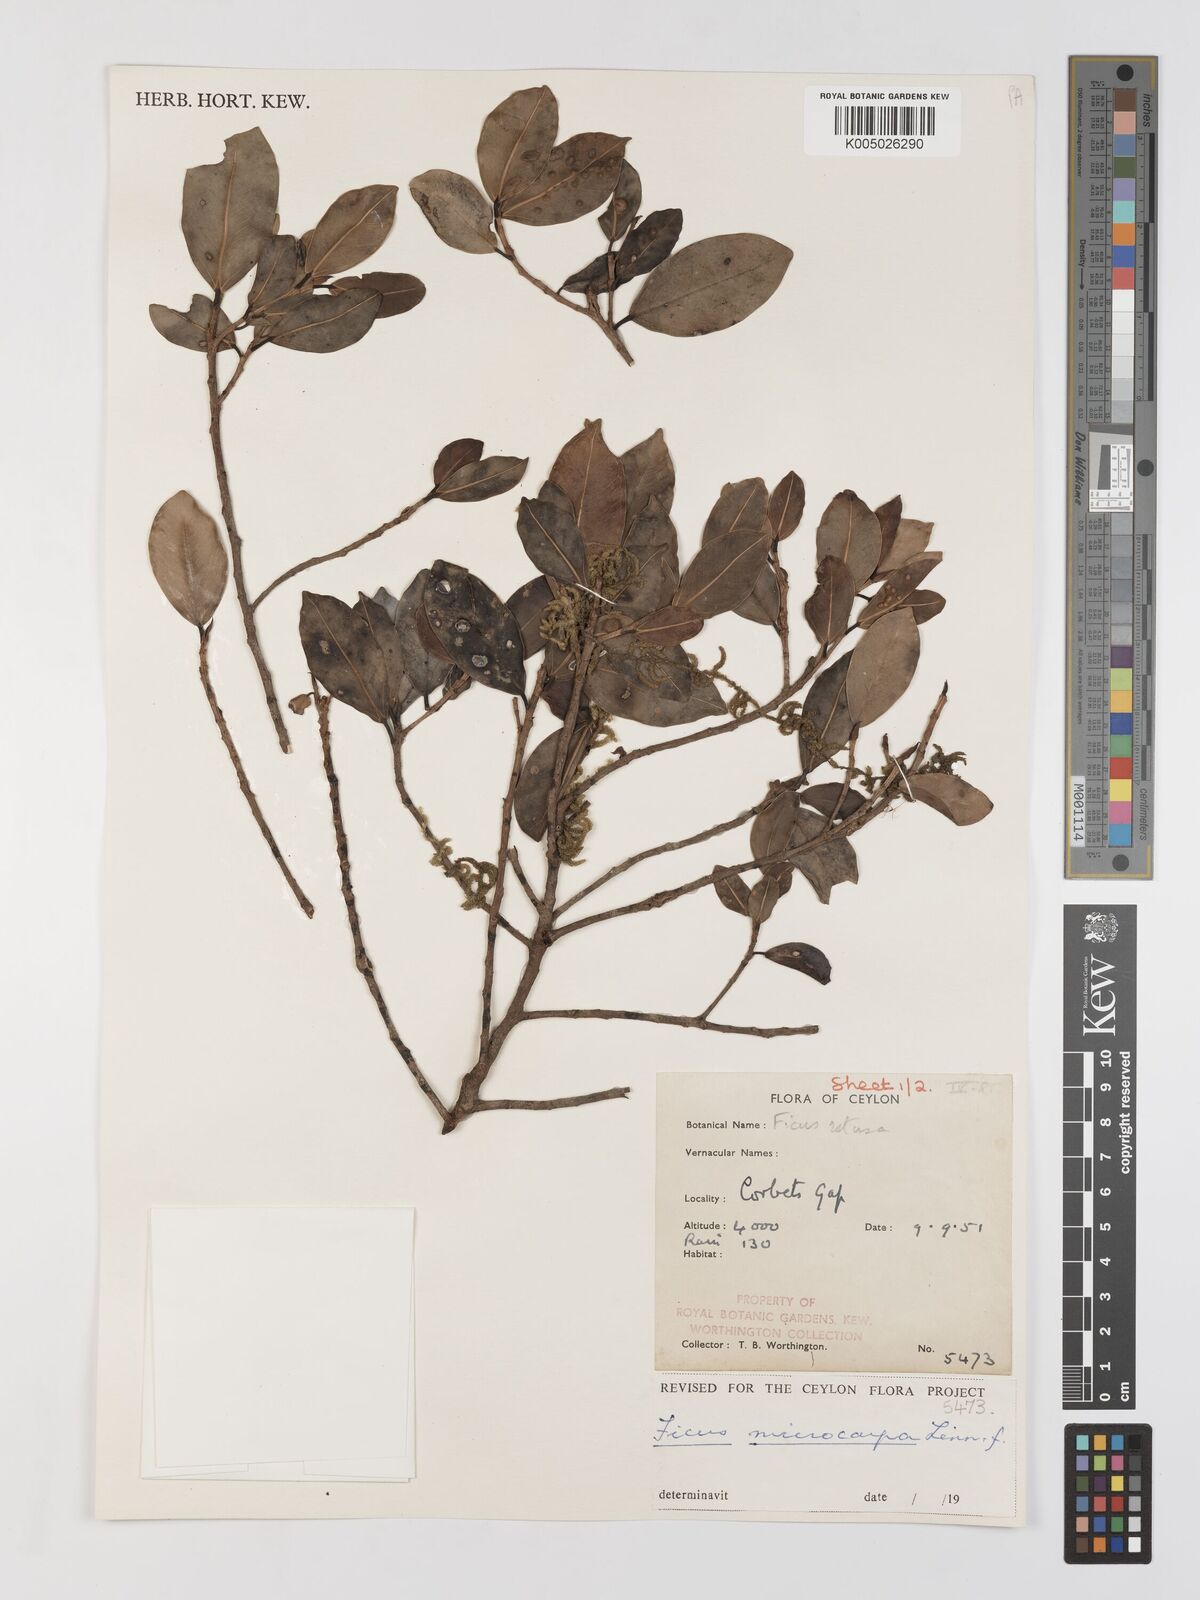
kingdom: Plantae
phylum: Tracheophyta
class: Magnoliopsida
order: Rosales
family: Moraceae
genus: Ficus
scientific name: Ficus
